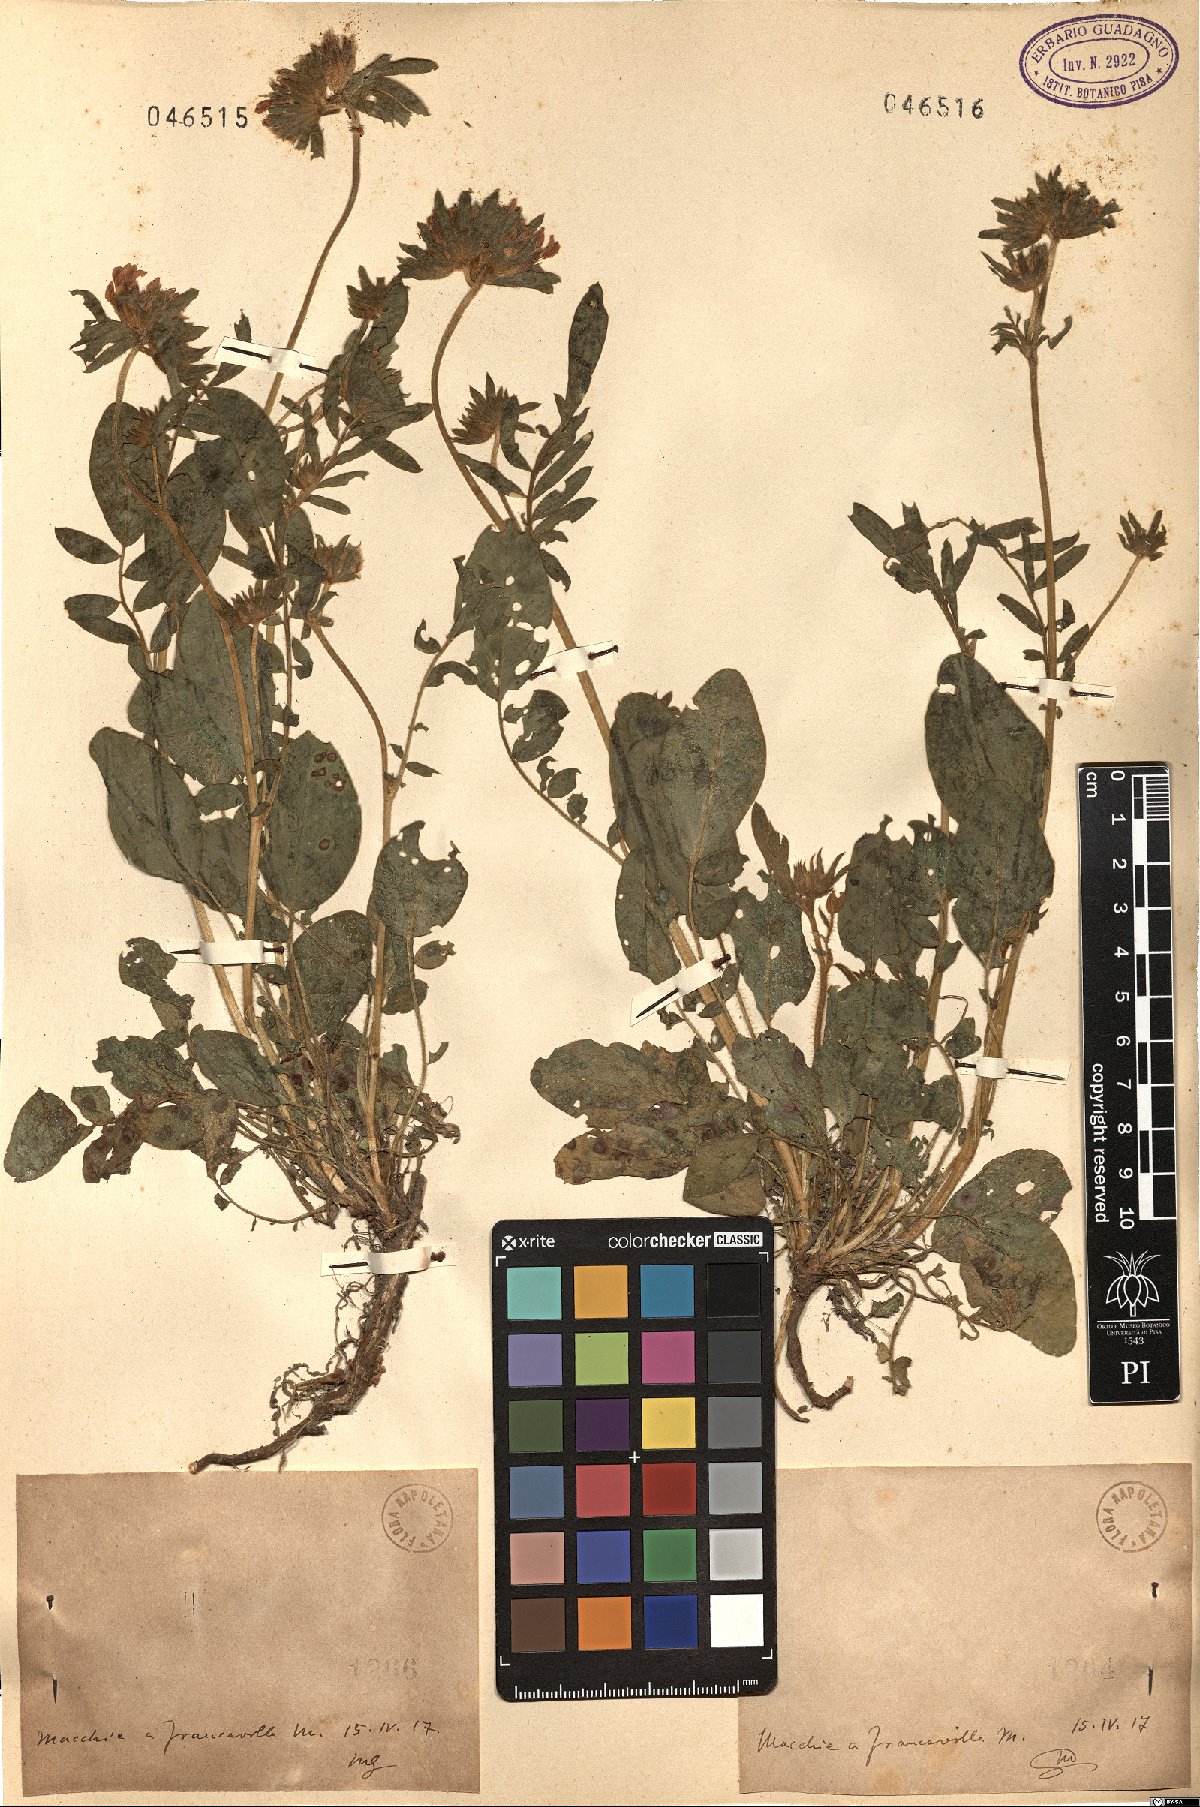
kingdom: Plantae
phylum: Tracheophyta
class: Magnoliopsida
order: Fabales
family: Fabaceae
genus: Anthyllis
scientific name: Anthyllis
